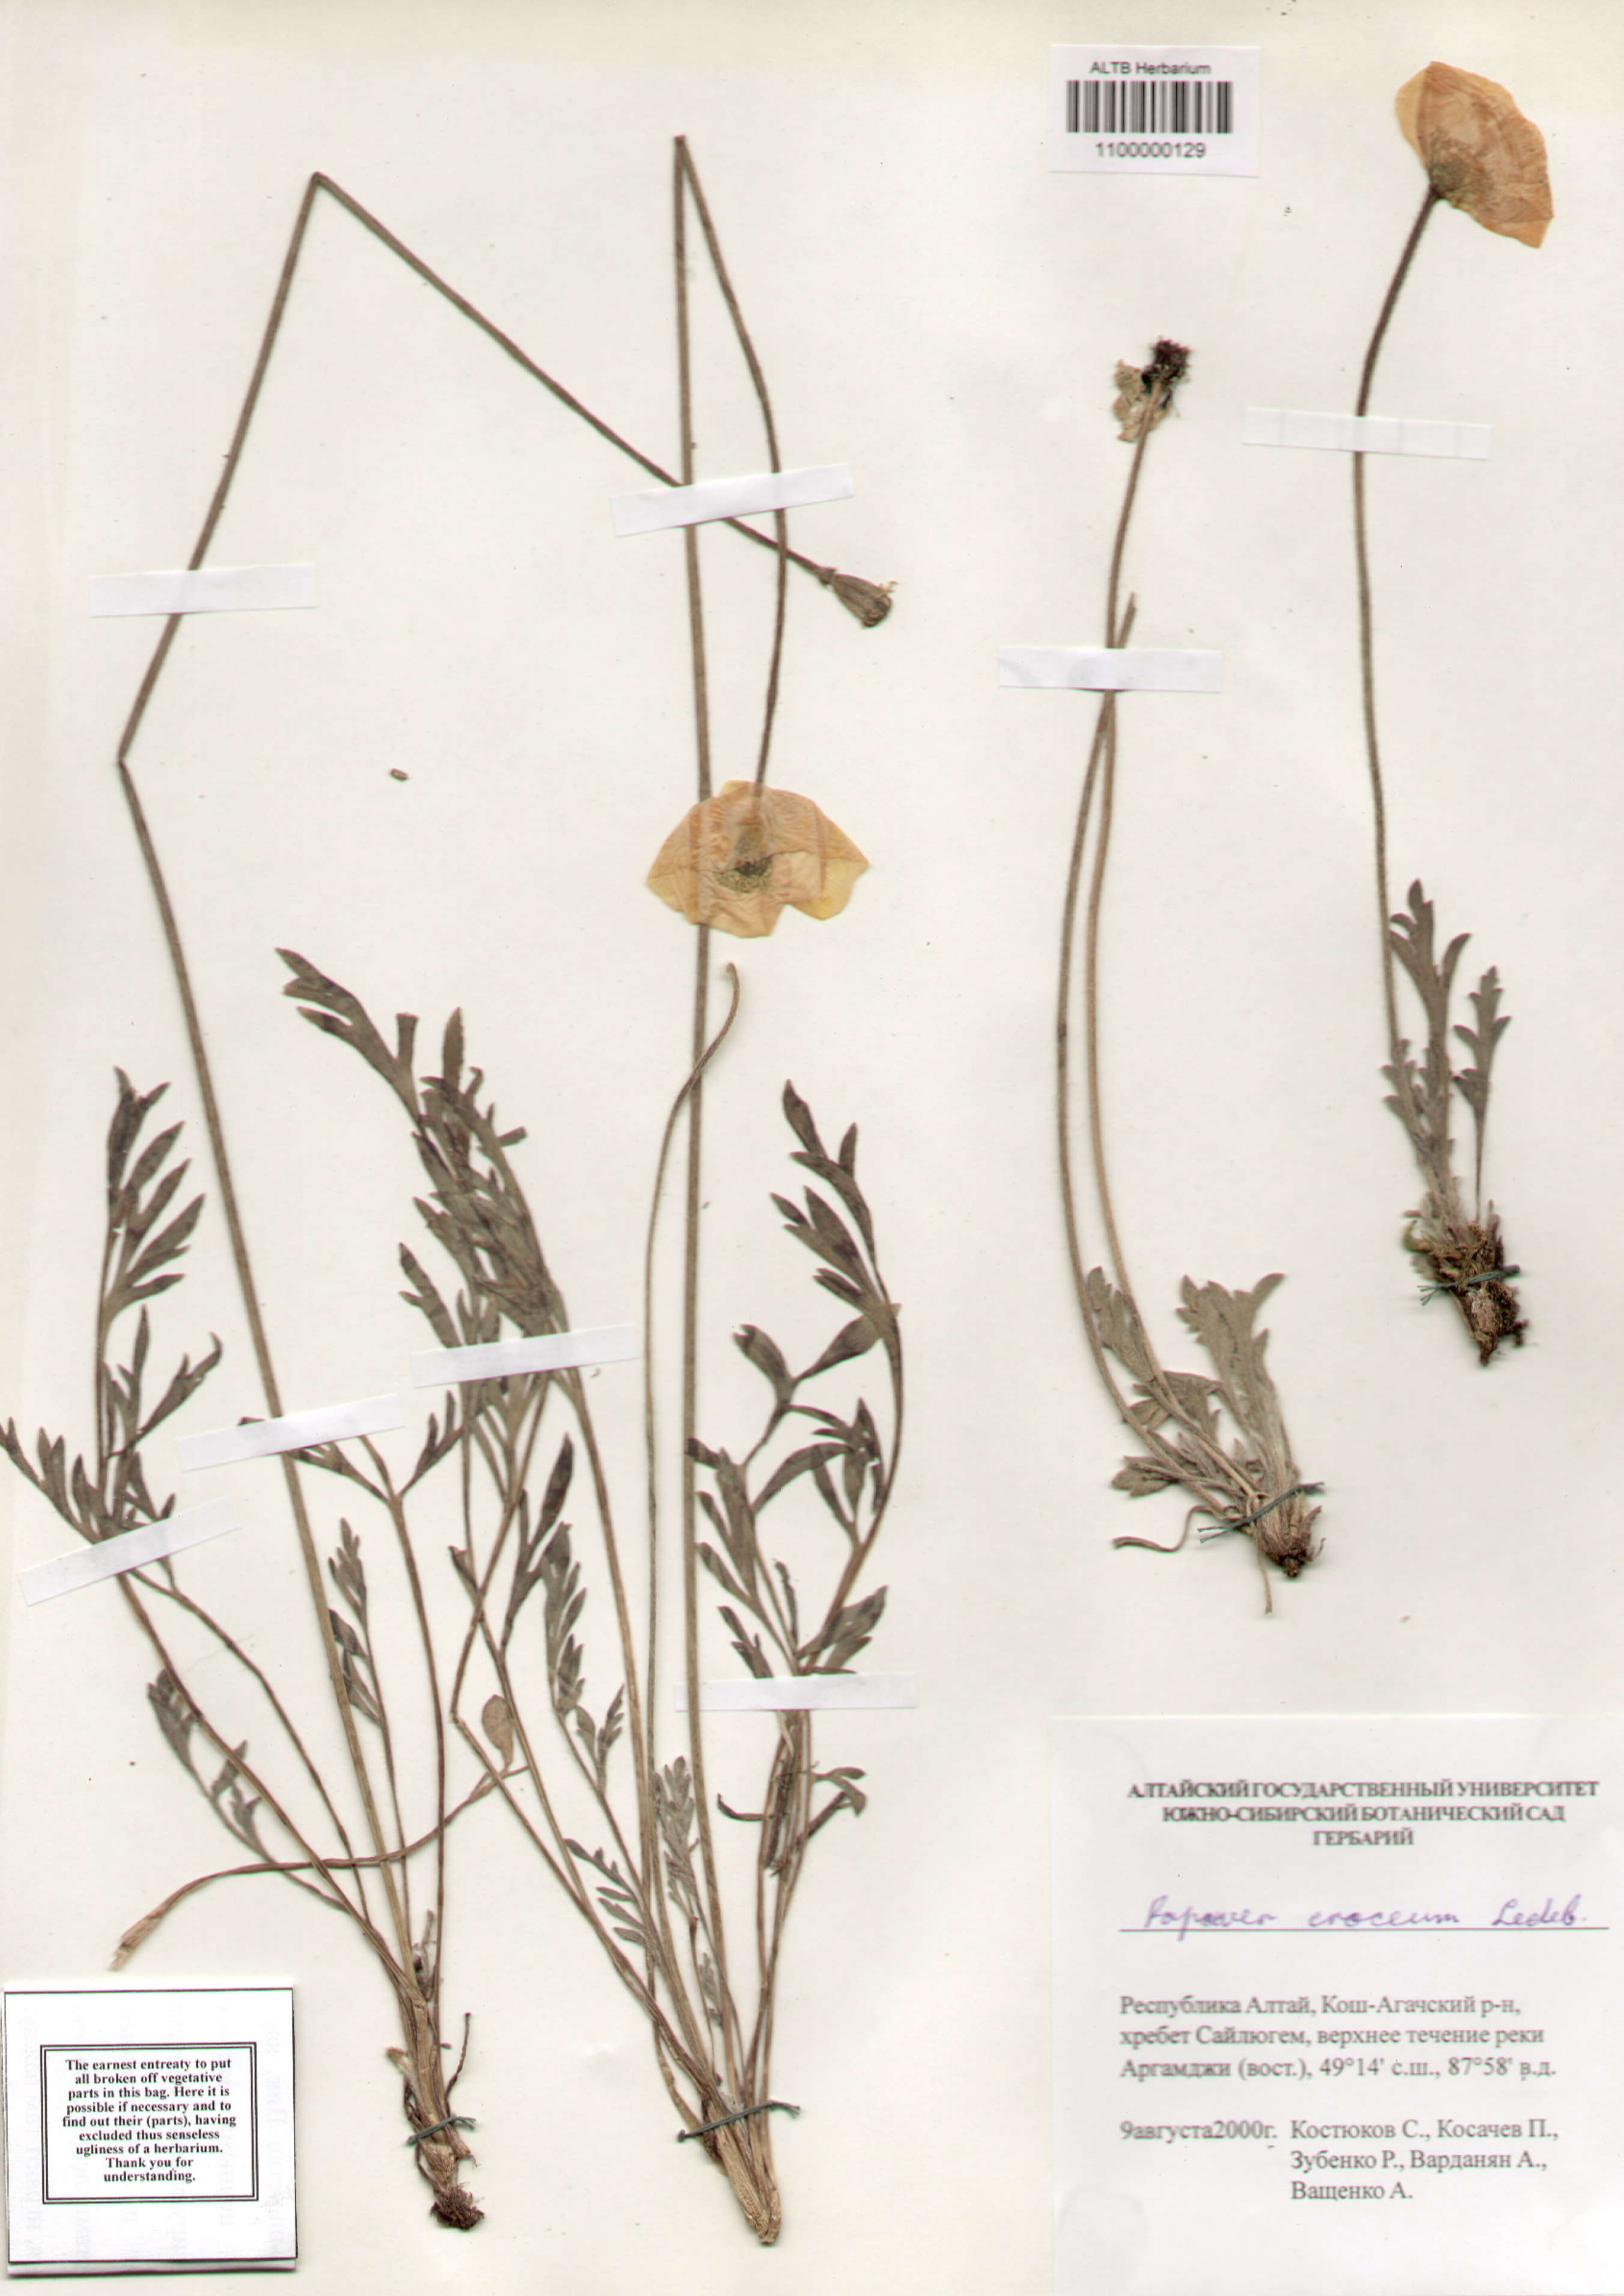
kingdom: Plantae
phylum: Tracheophyta
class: Magnoliopsida
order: Ranunculales
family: Papaveraceae
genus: Papaver
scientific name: Papaver croceum
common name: Siberian poppy
